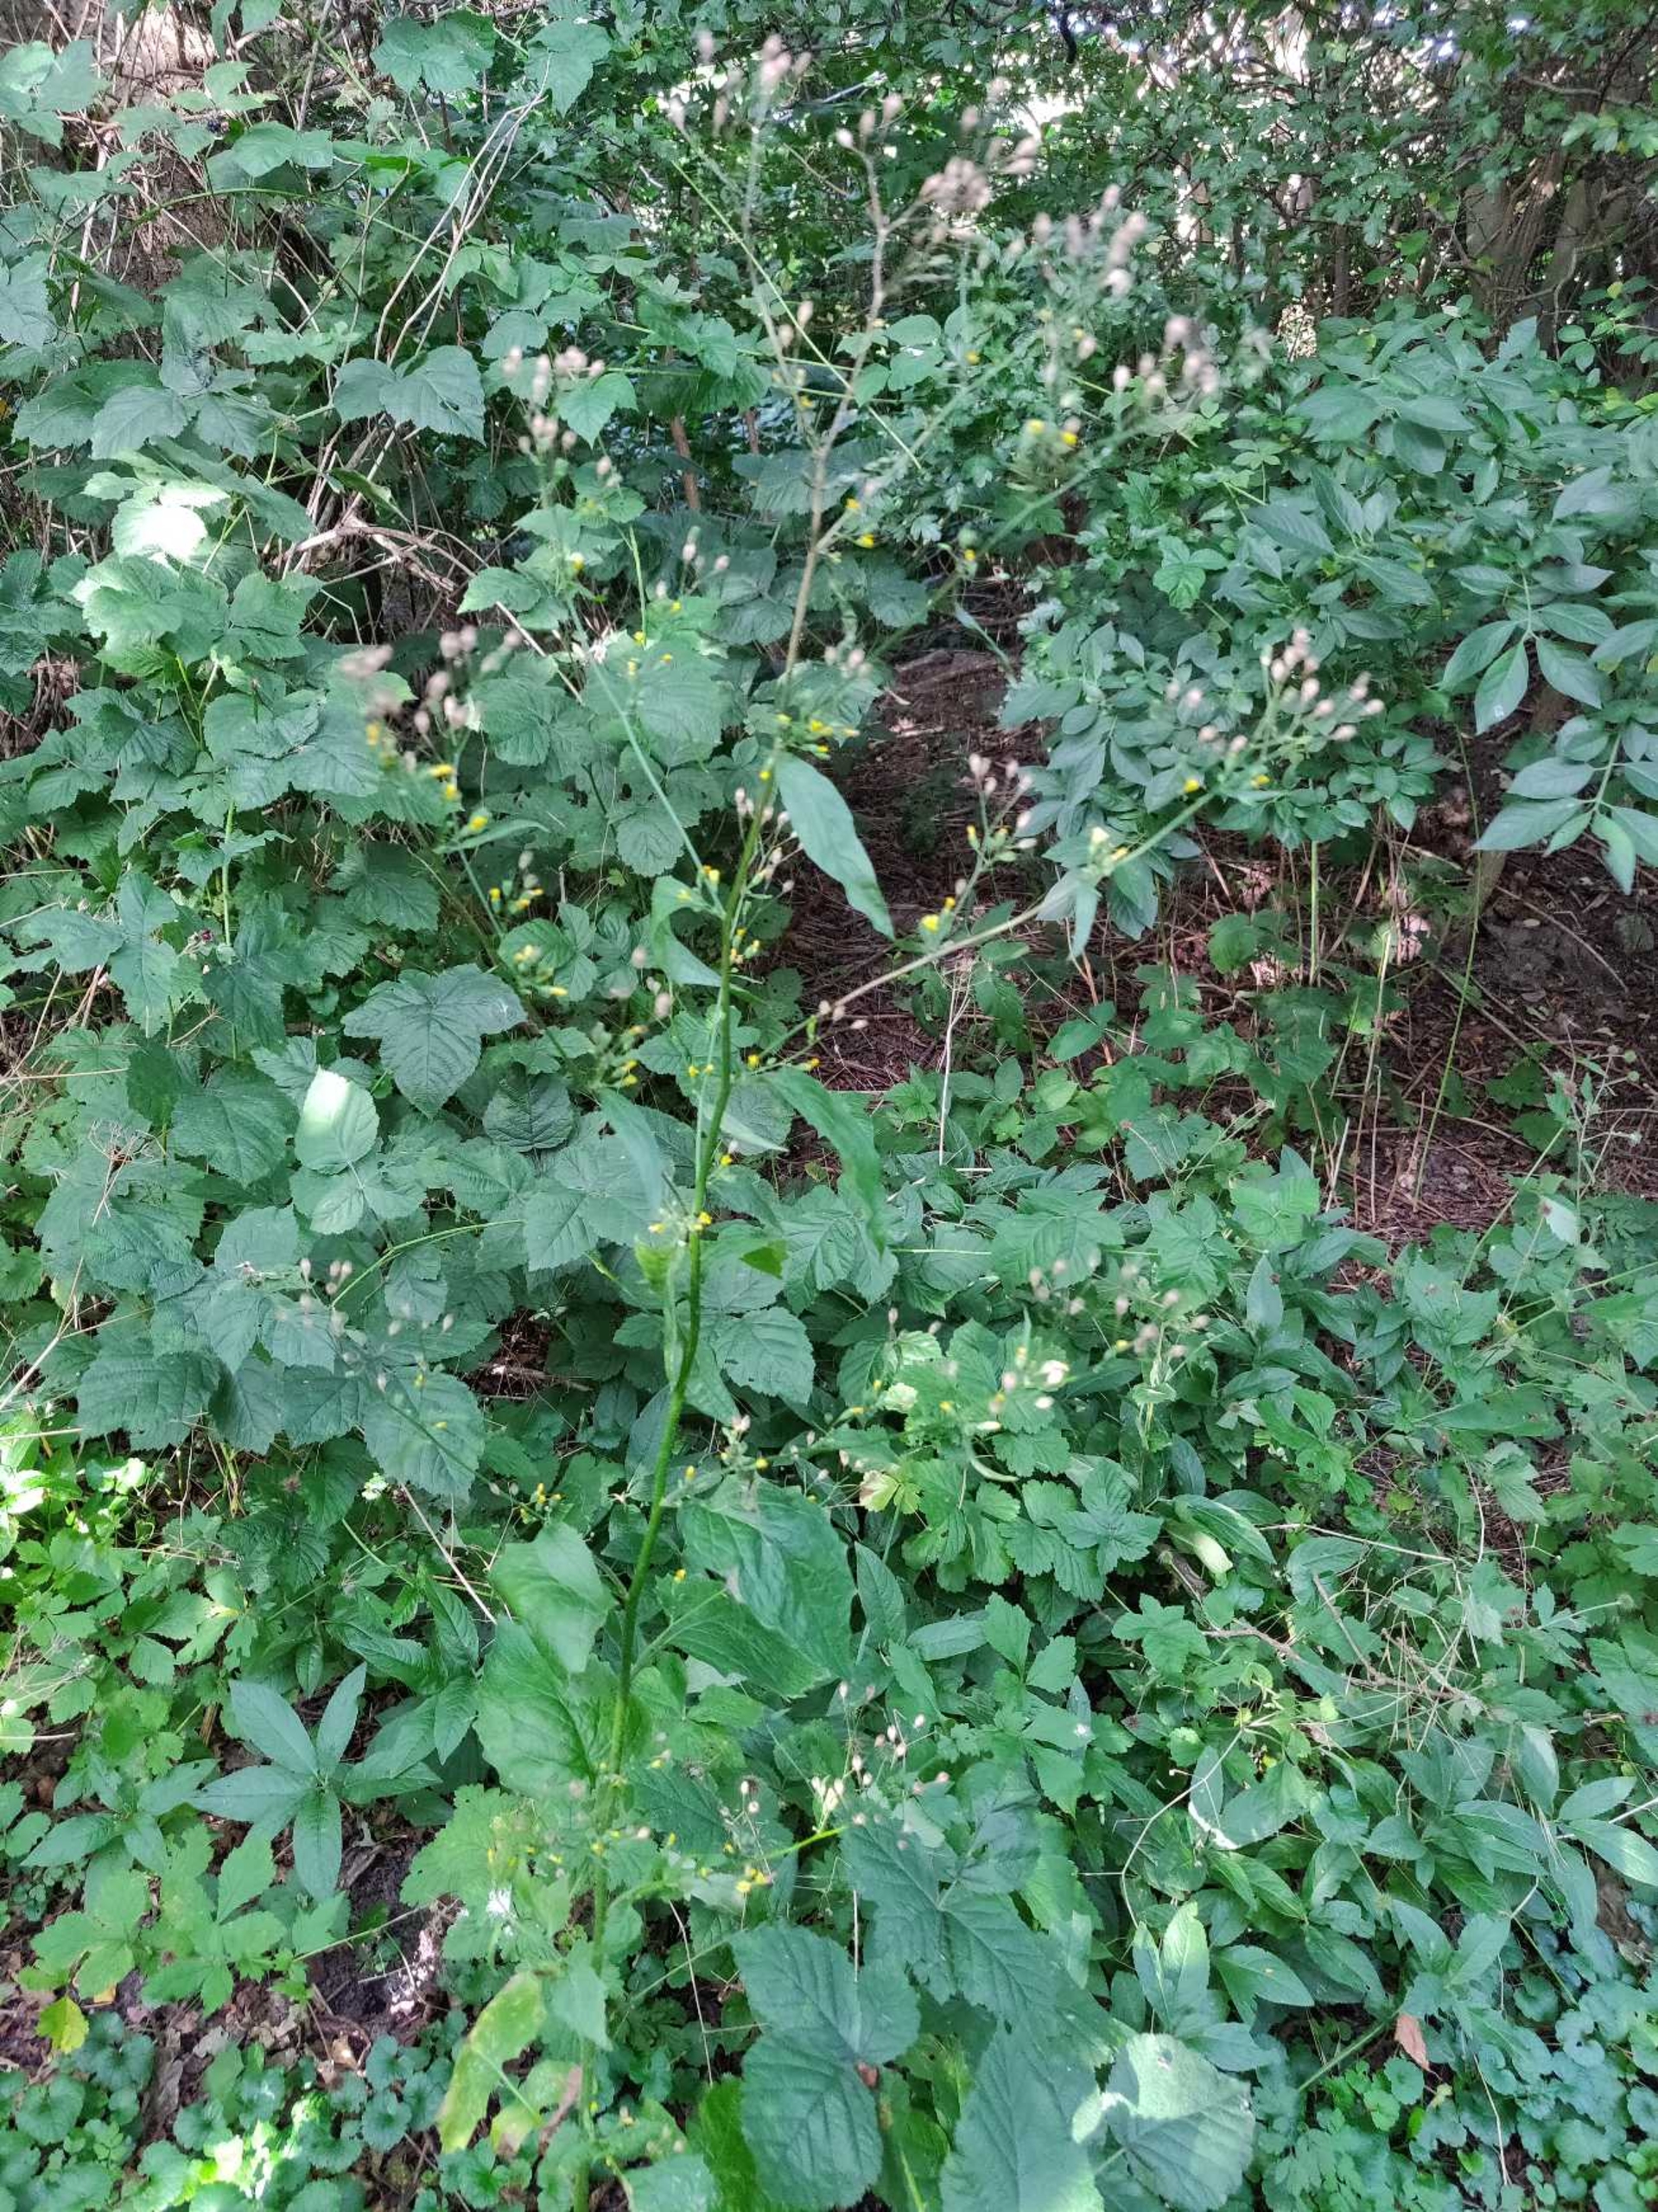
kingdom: Plantae
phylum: Tracheophyta
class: Magnoliopsida
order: Asterales
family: Asteraceae
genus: Lapsana
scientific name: Lapsana communis
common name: Haremad
